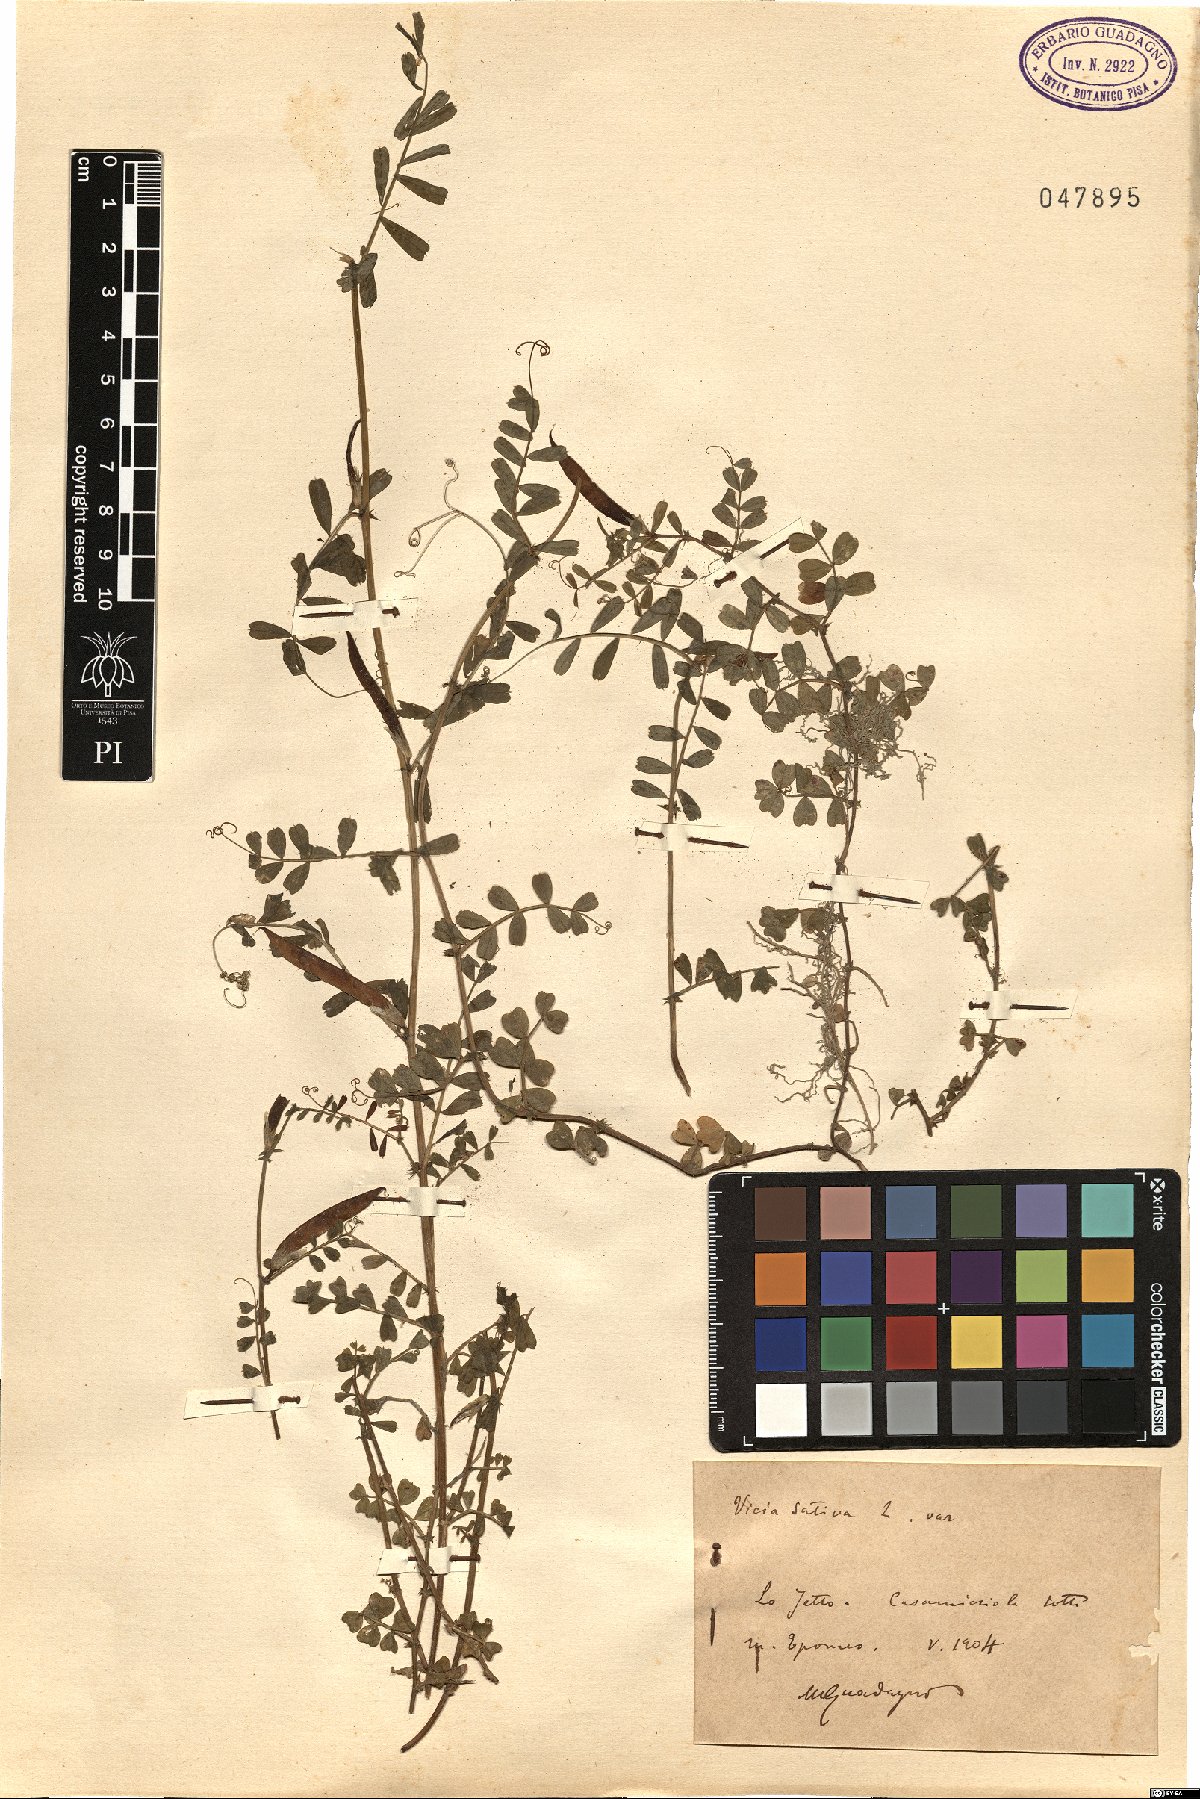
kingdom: Plantae
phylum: Tracheophyta
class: Magnoliopsida
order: Fabales
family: Fabaceae
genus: Vicia
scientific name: Vicia sativa
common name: Garden vetch
